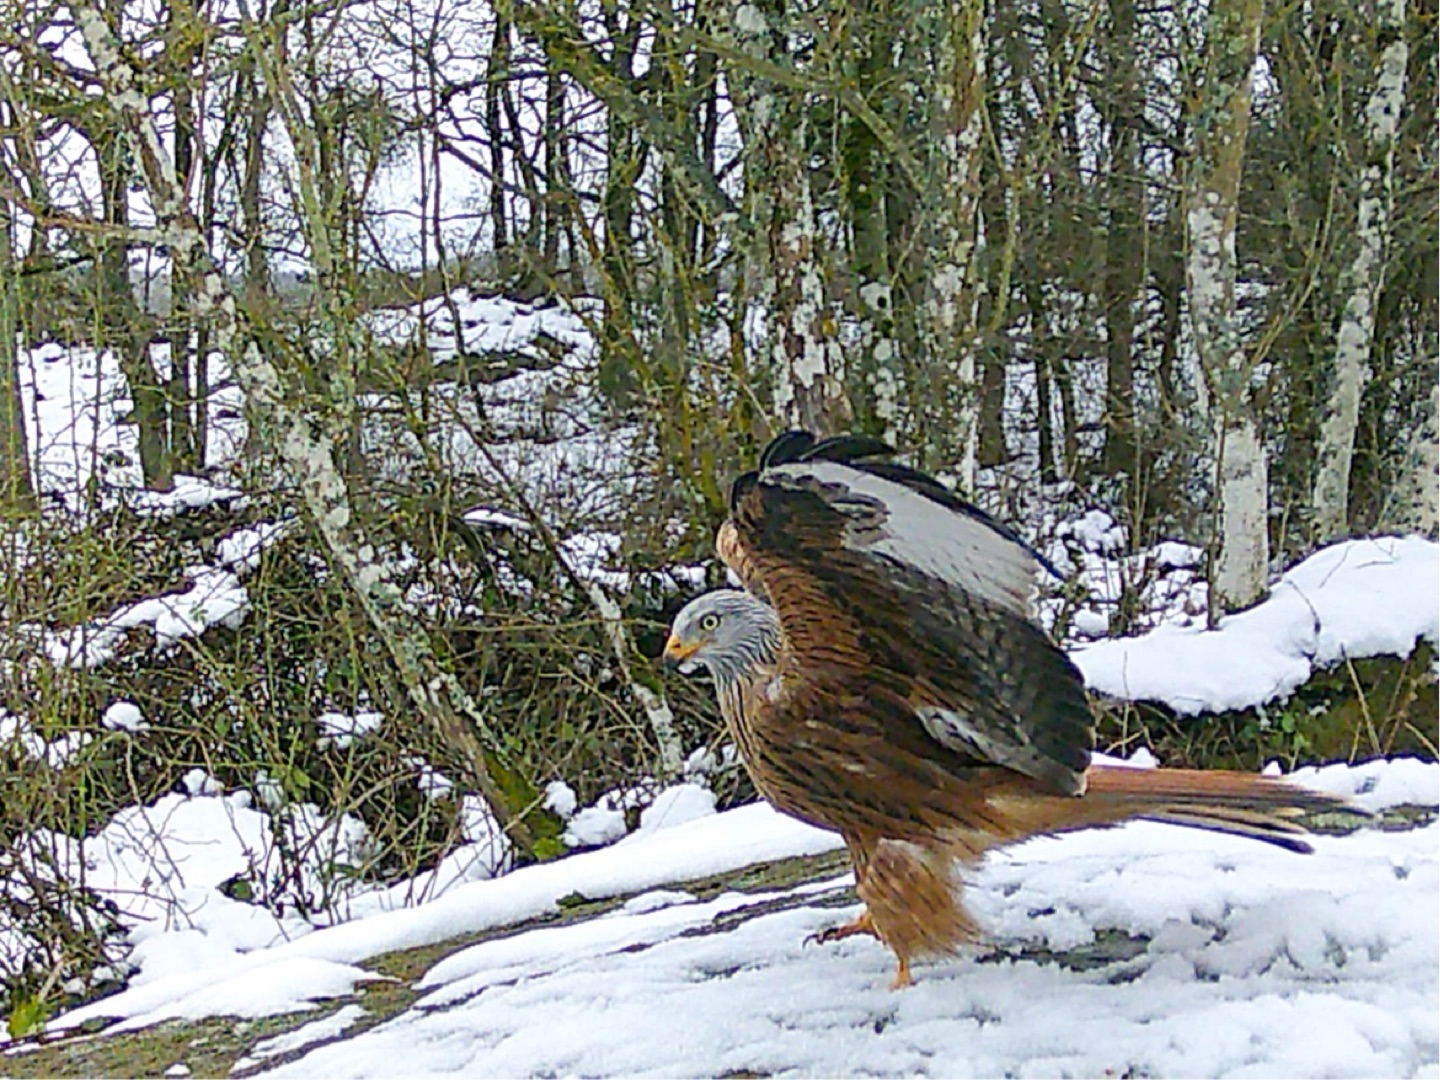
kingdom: Animalia
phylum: Chordata
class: Aves
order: Accipitriformes
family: Accipitridae
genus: Milvus
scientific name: Milvus milvus
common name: Rød glente
